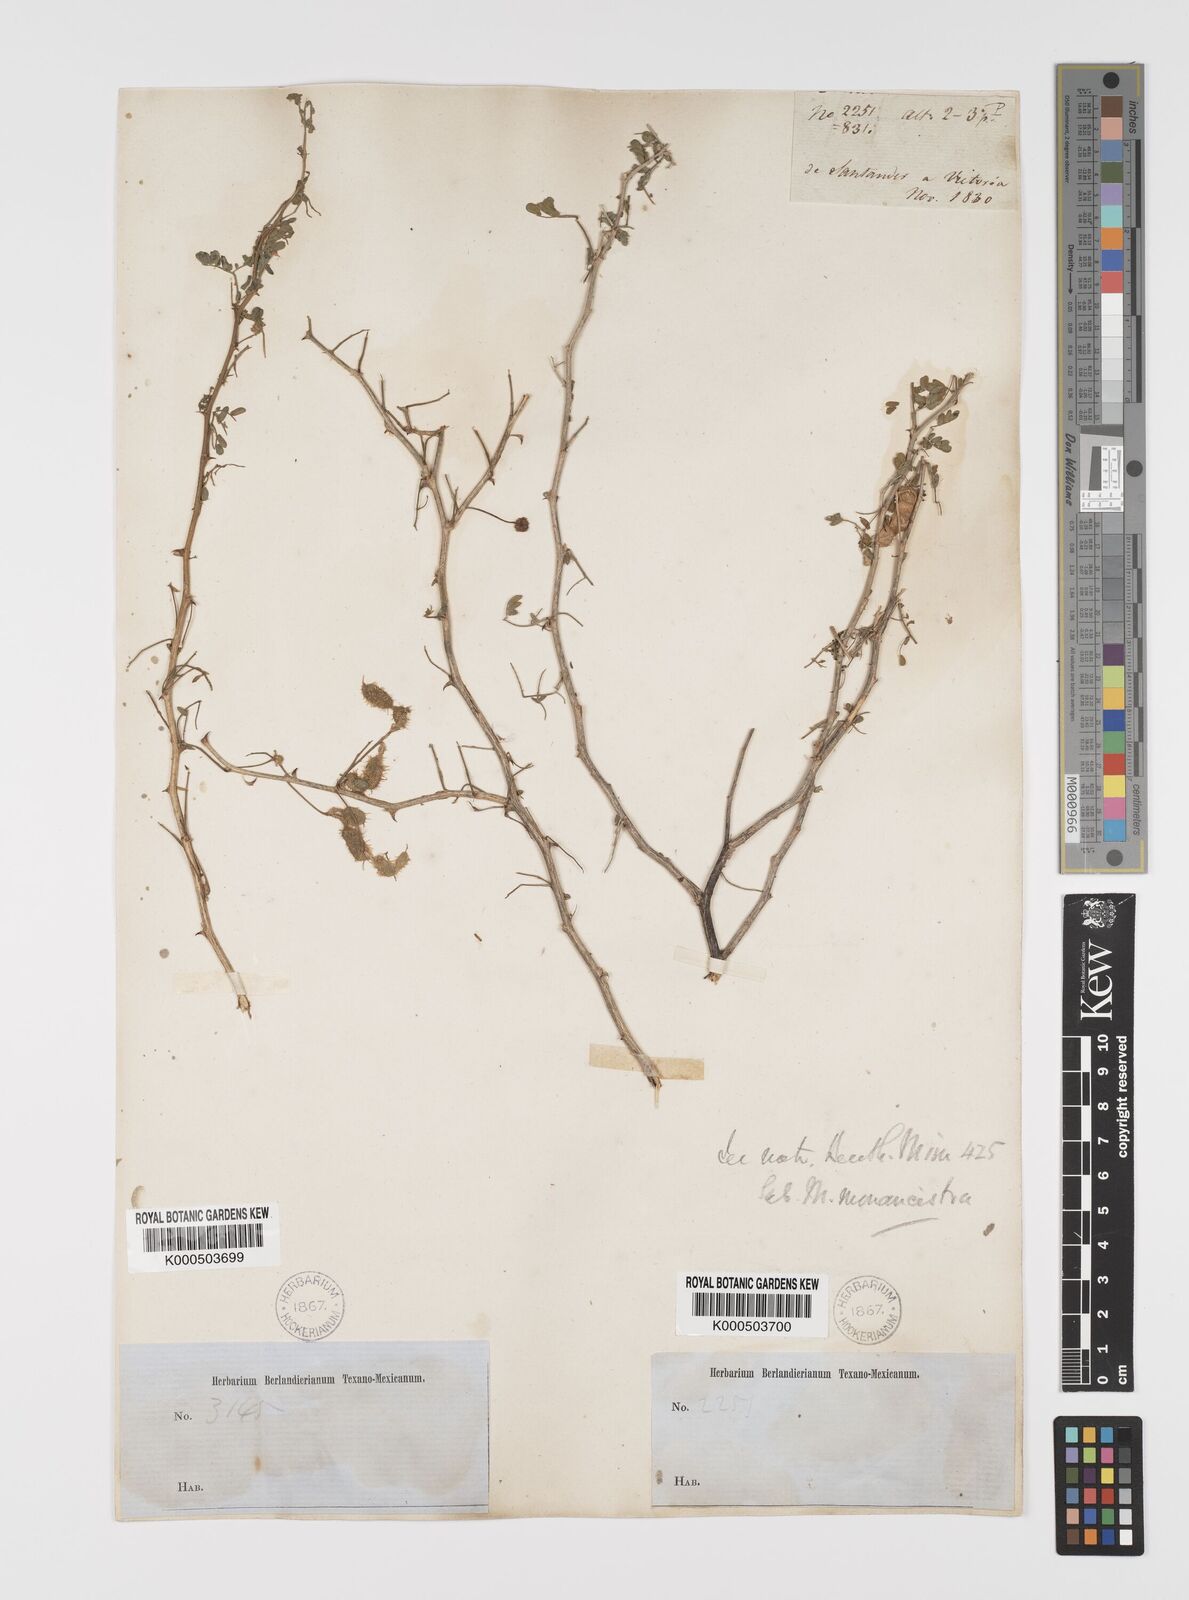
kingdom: Plantae
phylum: Tracheophyta
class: Magnoliopsida
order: Fabales
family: Fabaceae
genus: Mimosa
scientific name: Mimosa monancistra
